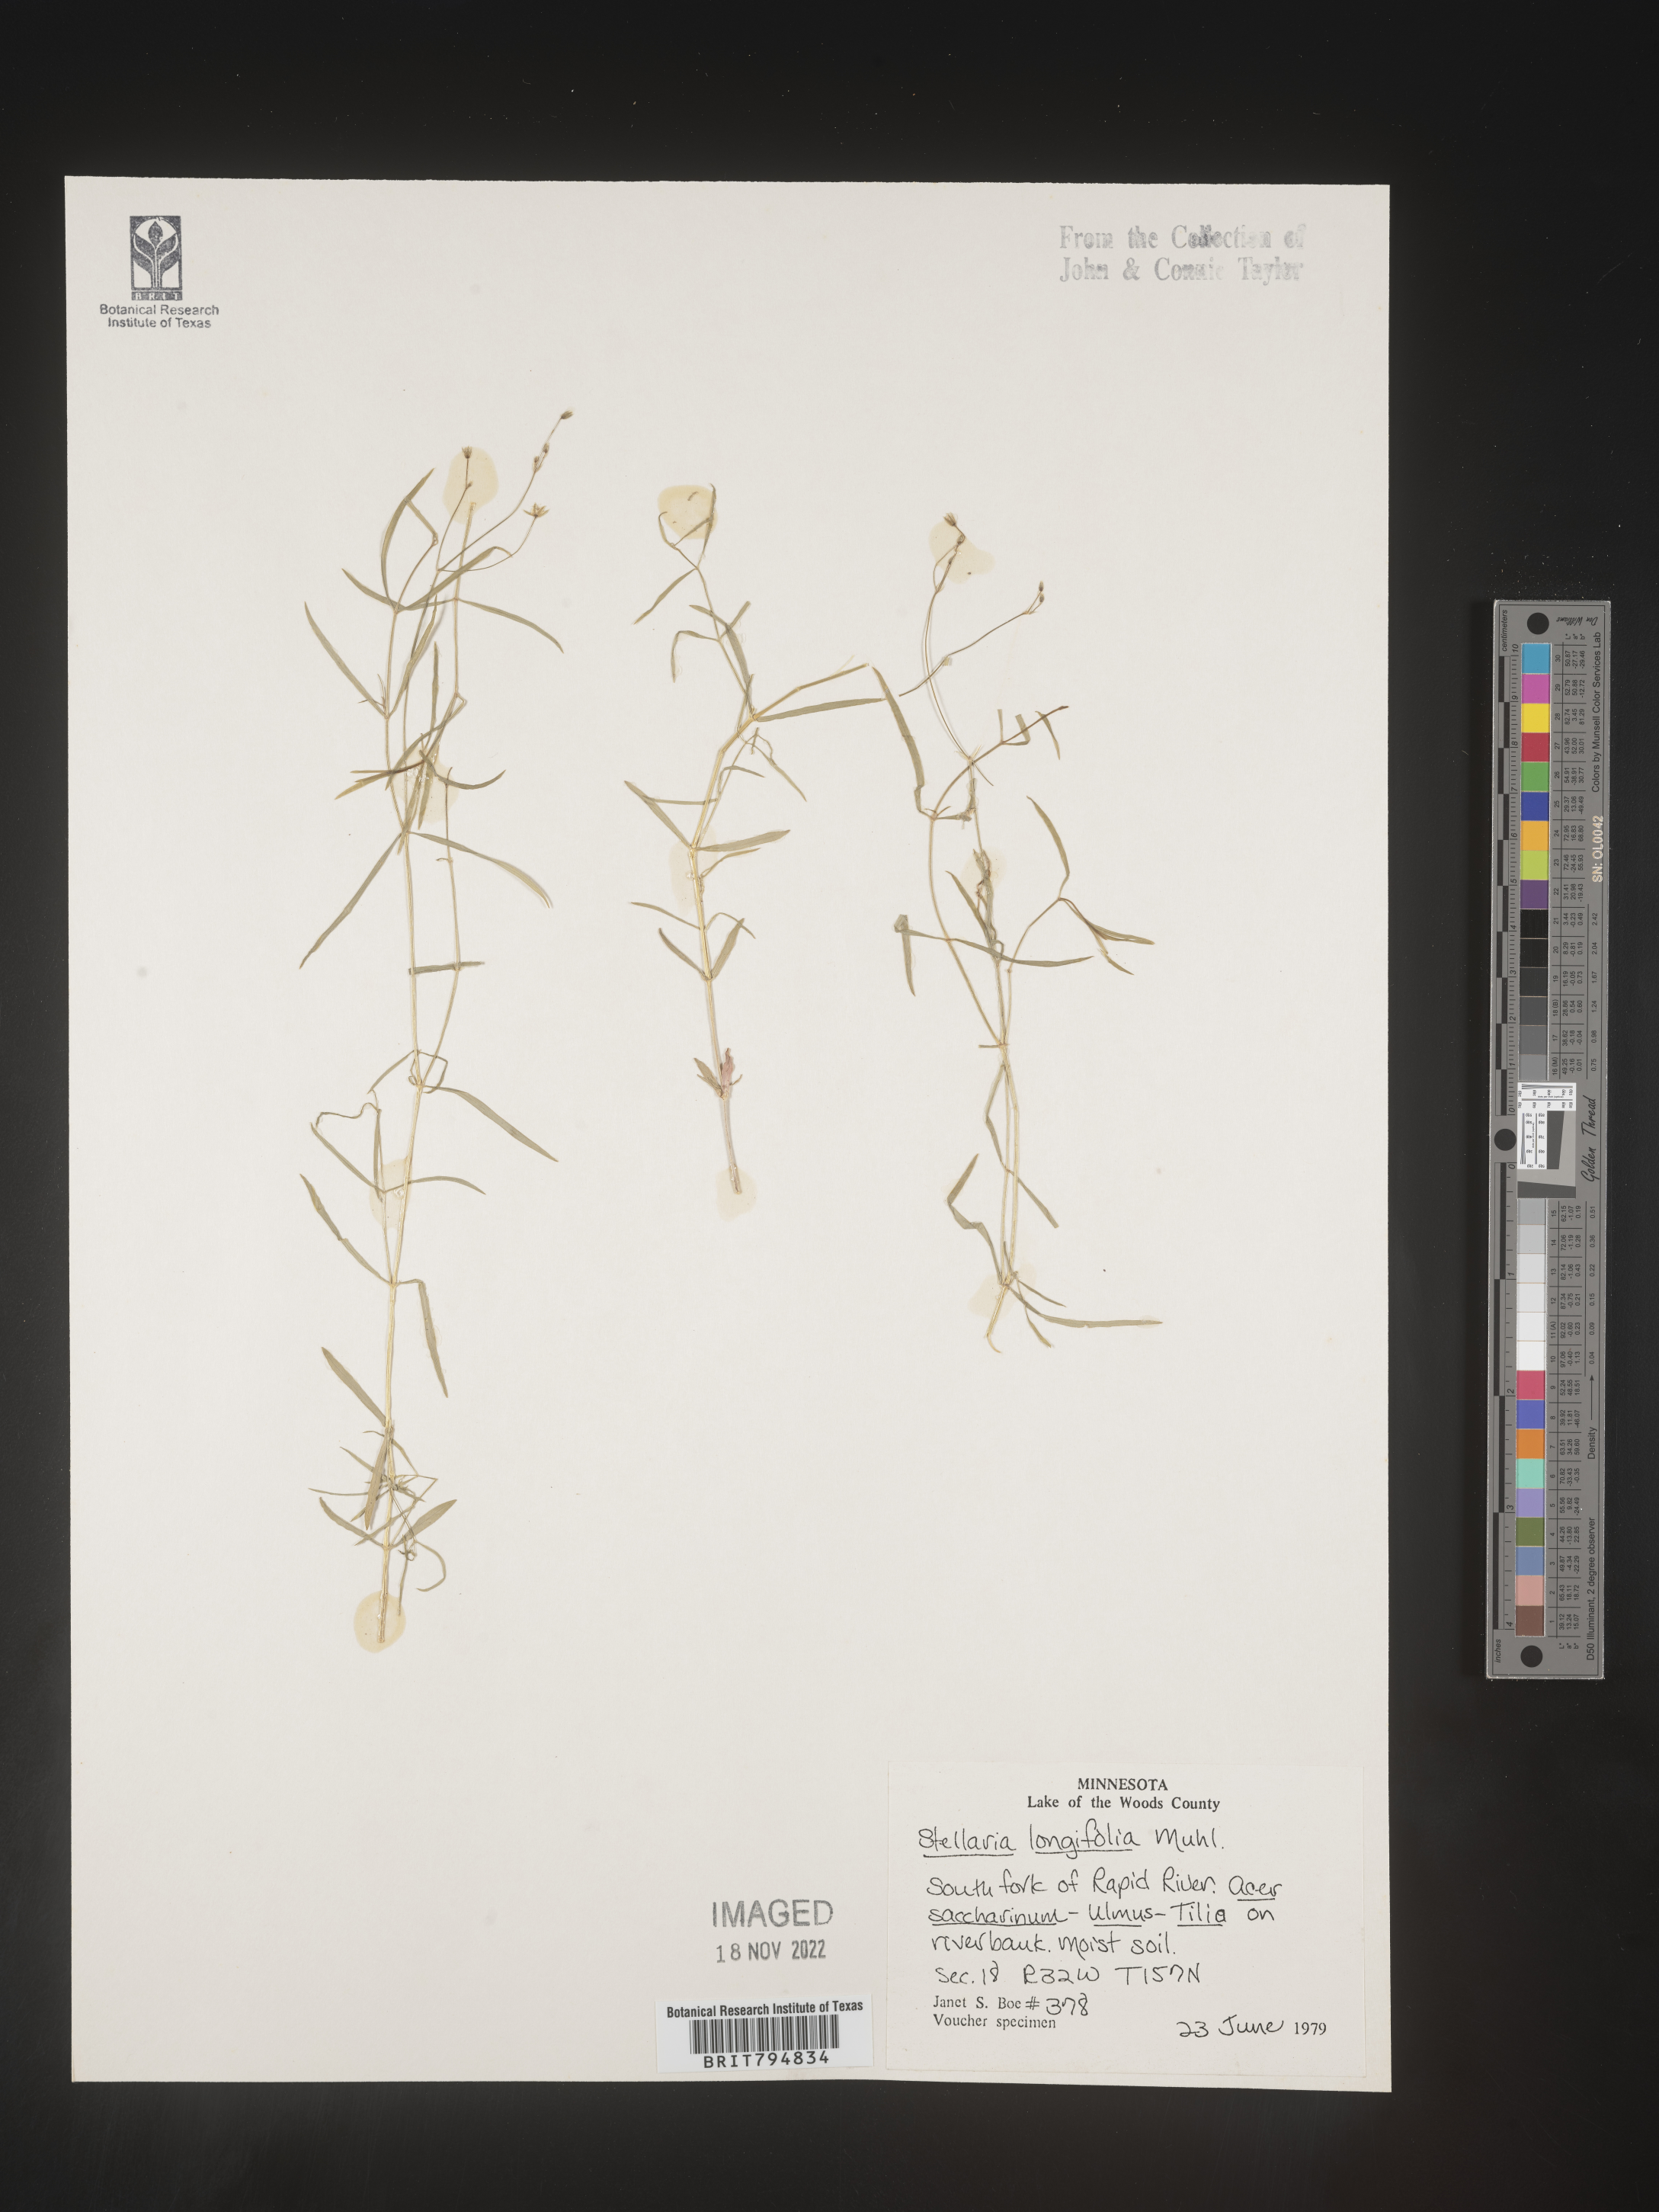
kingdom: Plantae
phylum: Tracheophyta
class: Magnoliopsida
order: Caryophyllales
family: Caryophyllaceae
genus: Stellaria
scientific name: Stellaria longifolia
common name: Long-leaved chickweed
